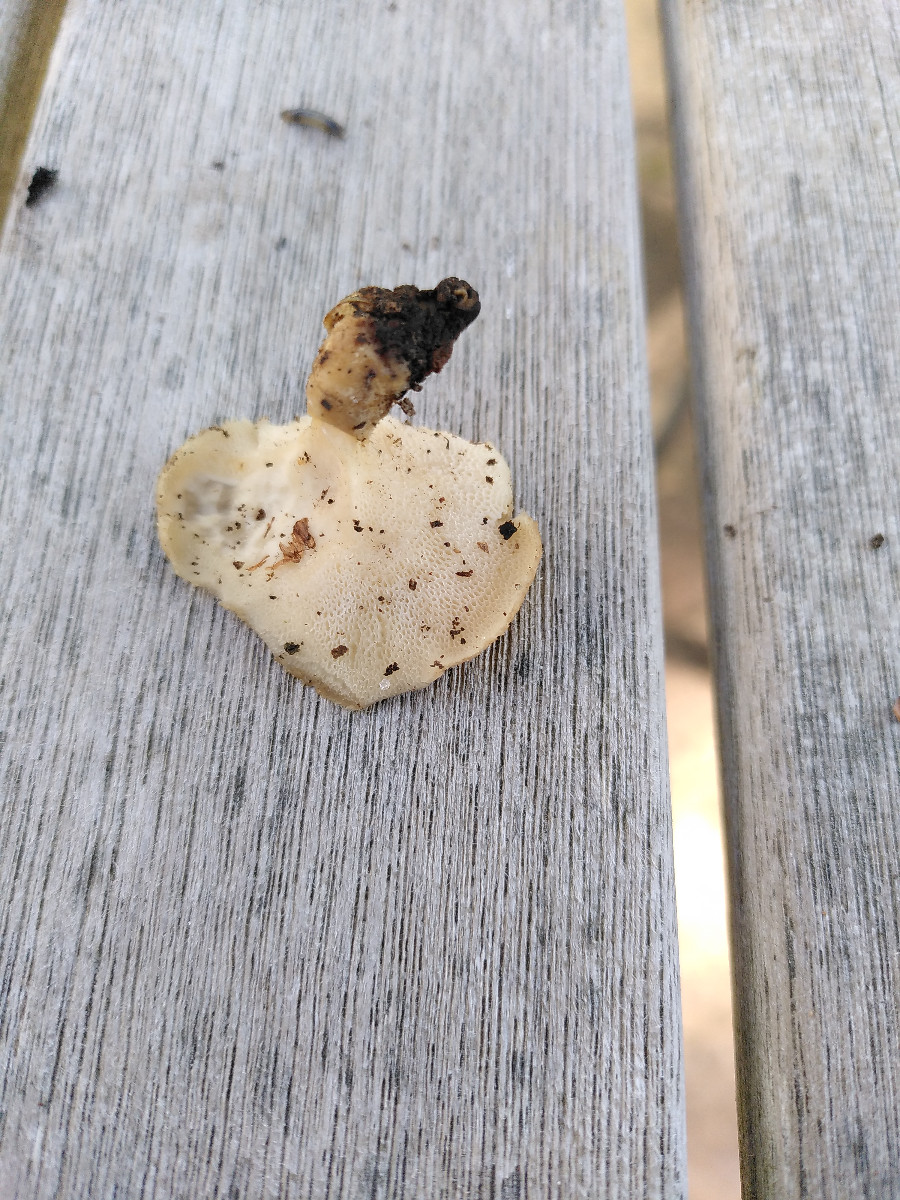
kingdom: Fungi
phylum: Basidiomycota
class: Agaricomycetes
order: Polyporales
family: Polyporaceae
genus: Polyporus
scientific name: Polyporus tuberaster
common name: knoldet stilkporesvamp
